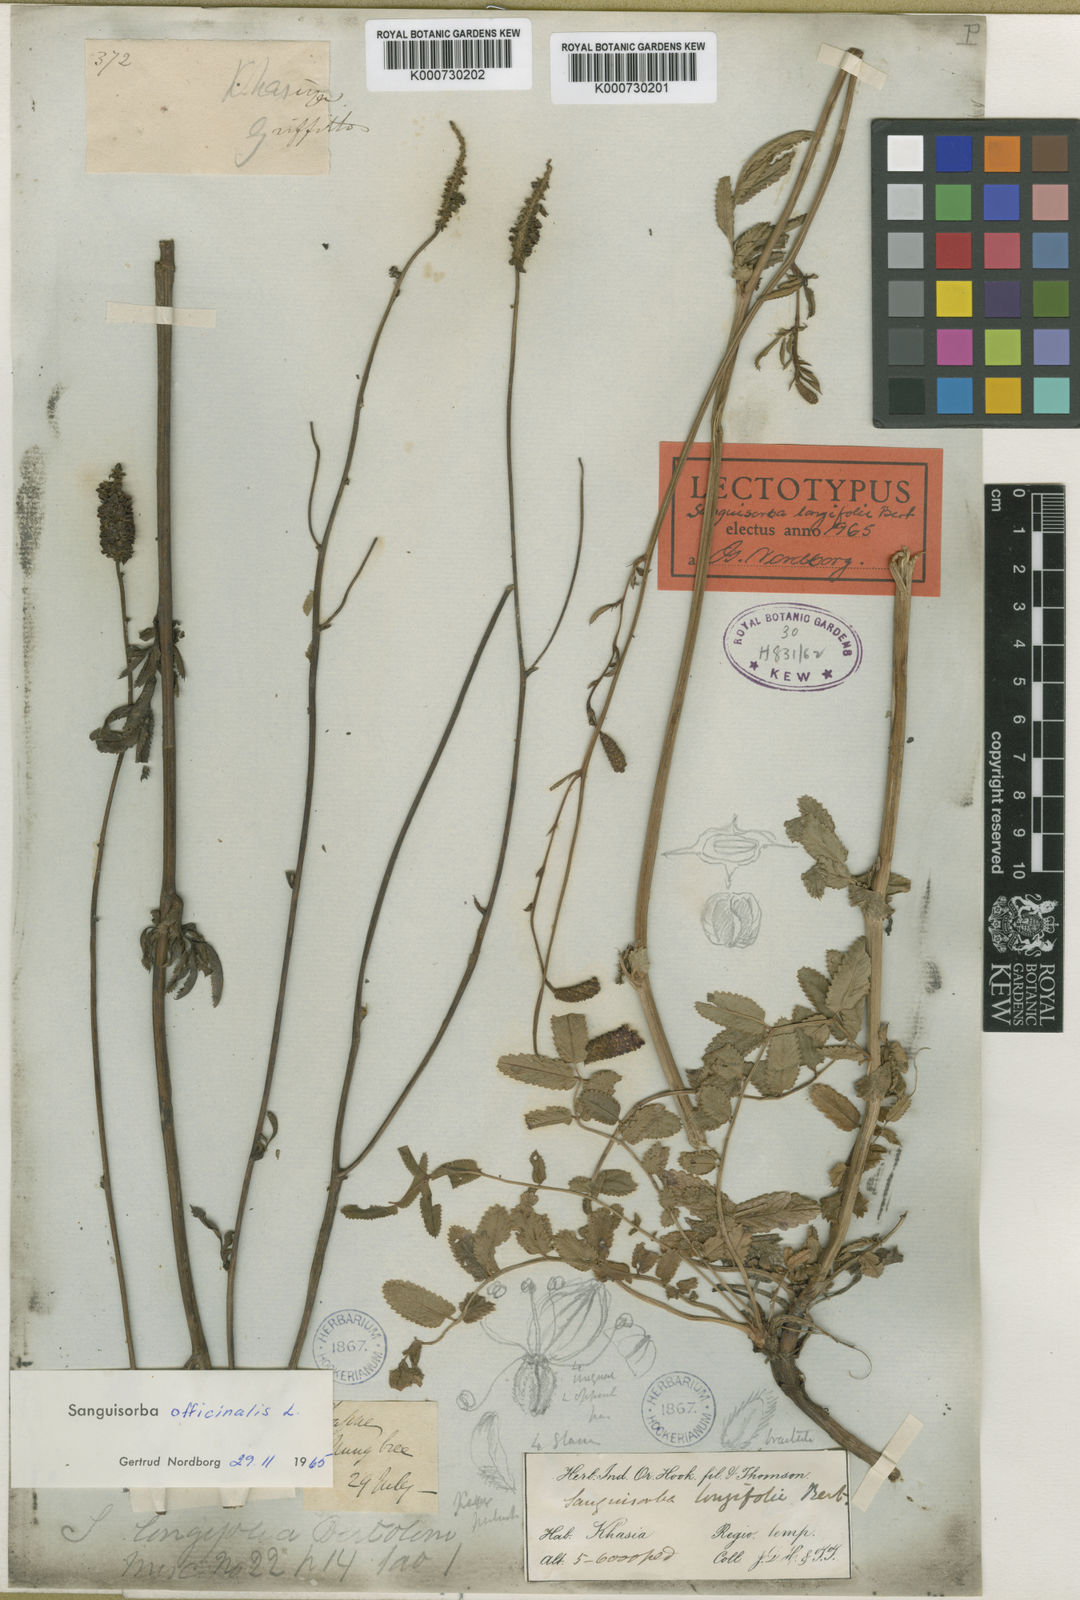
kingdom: Plantae
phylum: Tracheophyta
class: Magnoliopsida
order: Rosales
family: Rosaceae
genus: Poterium
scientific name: Poterium longifolium
